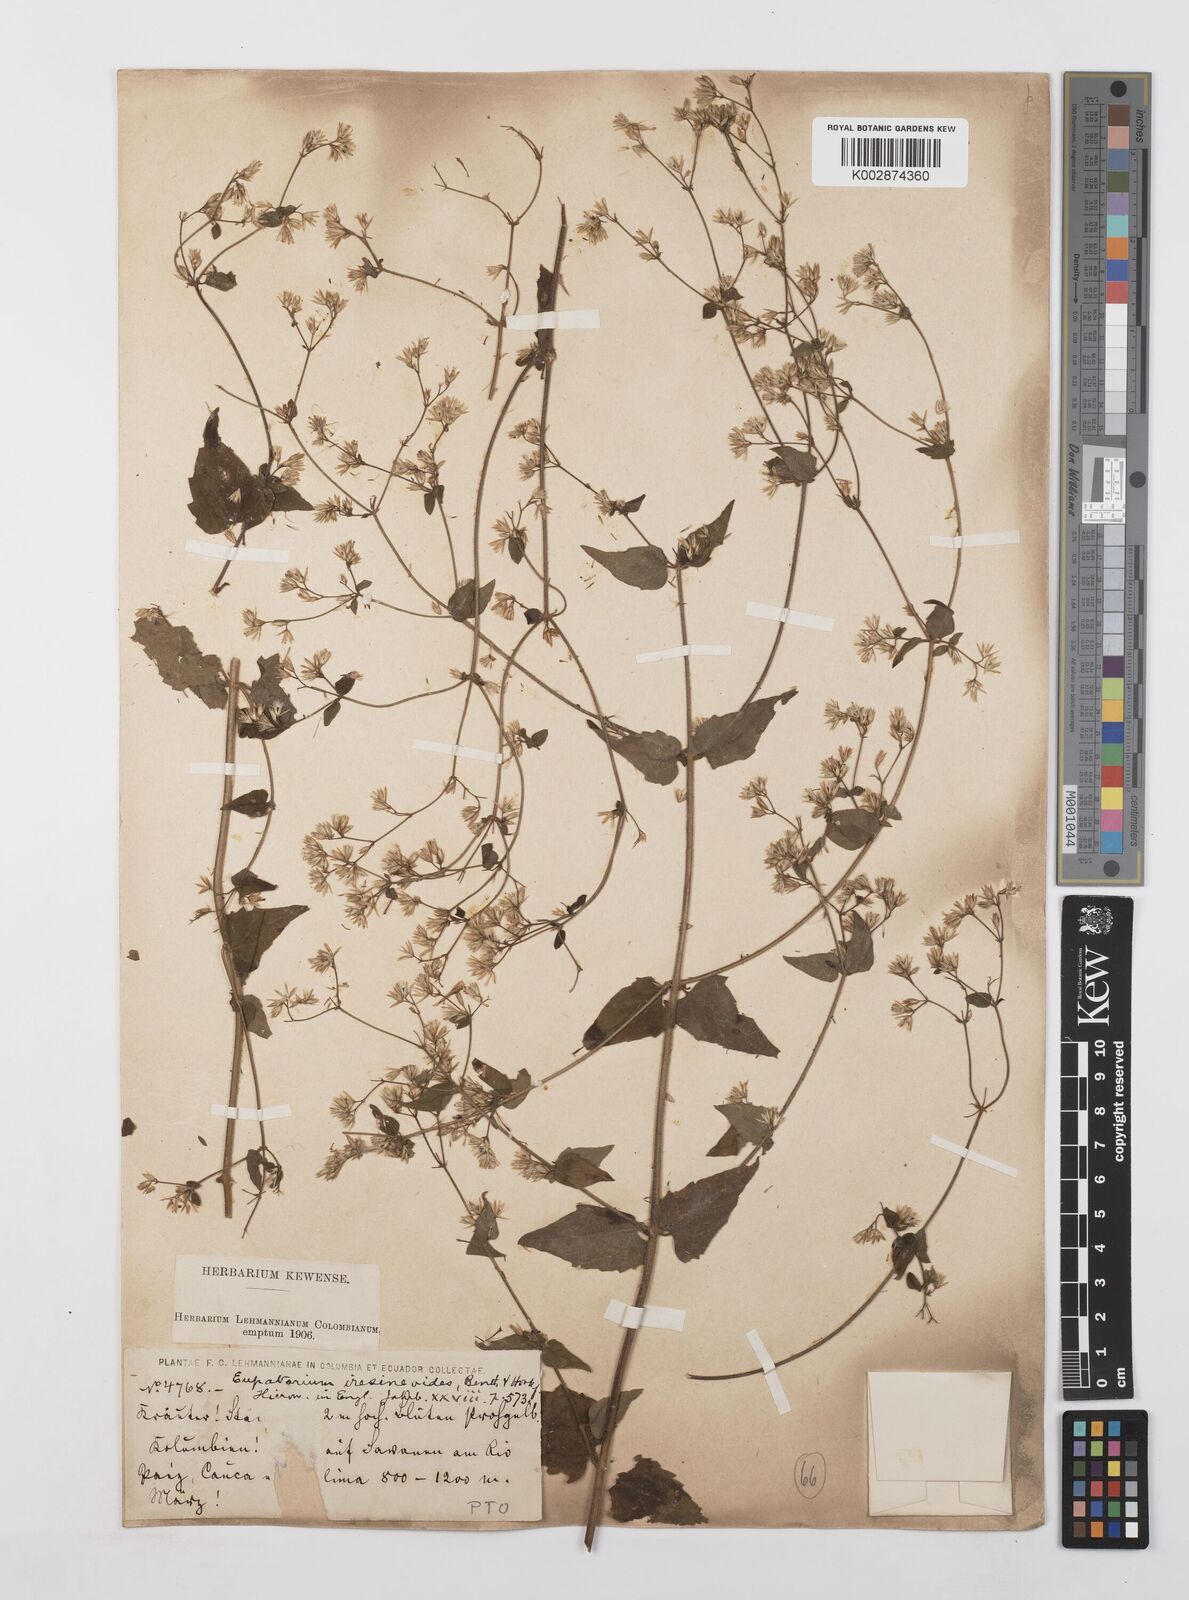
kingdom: Plantae
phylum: Tracheophyta
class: Magnoliopsida
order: Asterales
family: Asteraceae
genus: Condylidium
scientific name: Condylidium iresinoides
